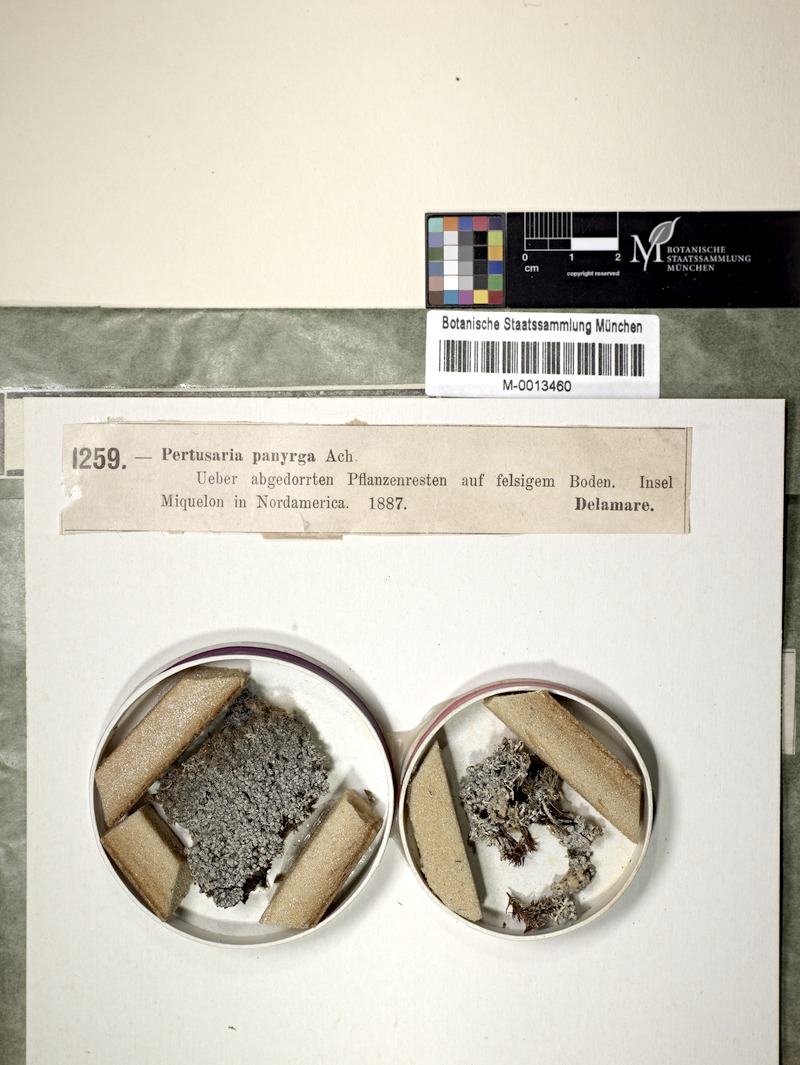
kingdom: Fungi
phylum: Ascomycota
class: Lecanoromycetes
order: Pertusariales
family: Pertusariaceae
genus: Lepra
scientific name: Lepra panyrga
